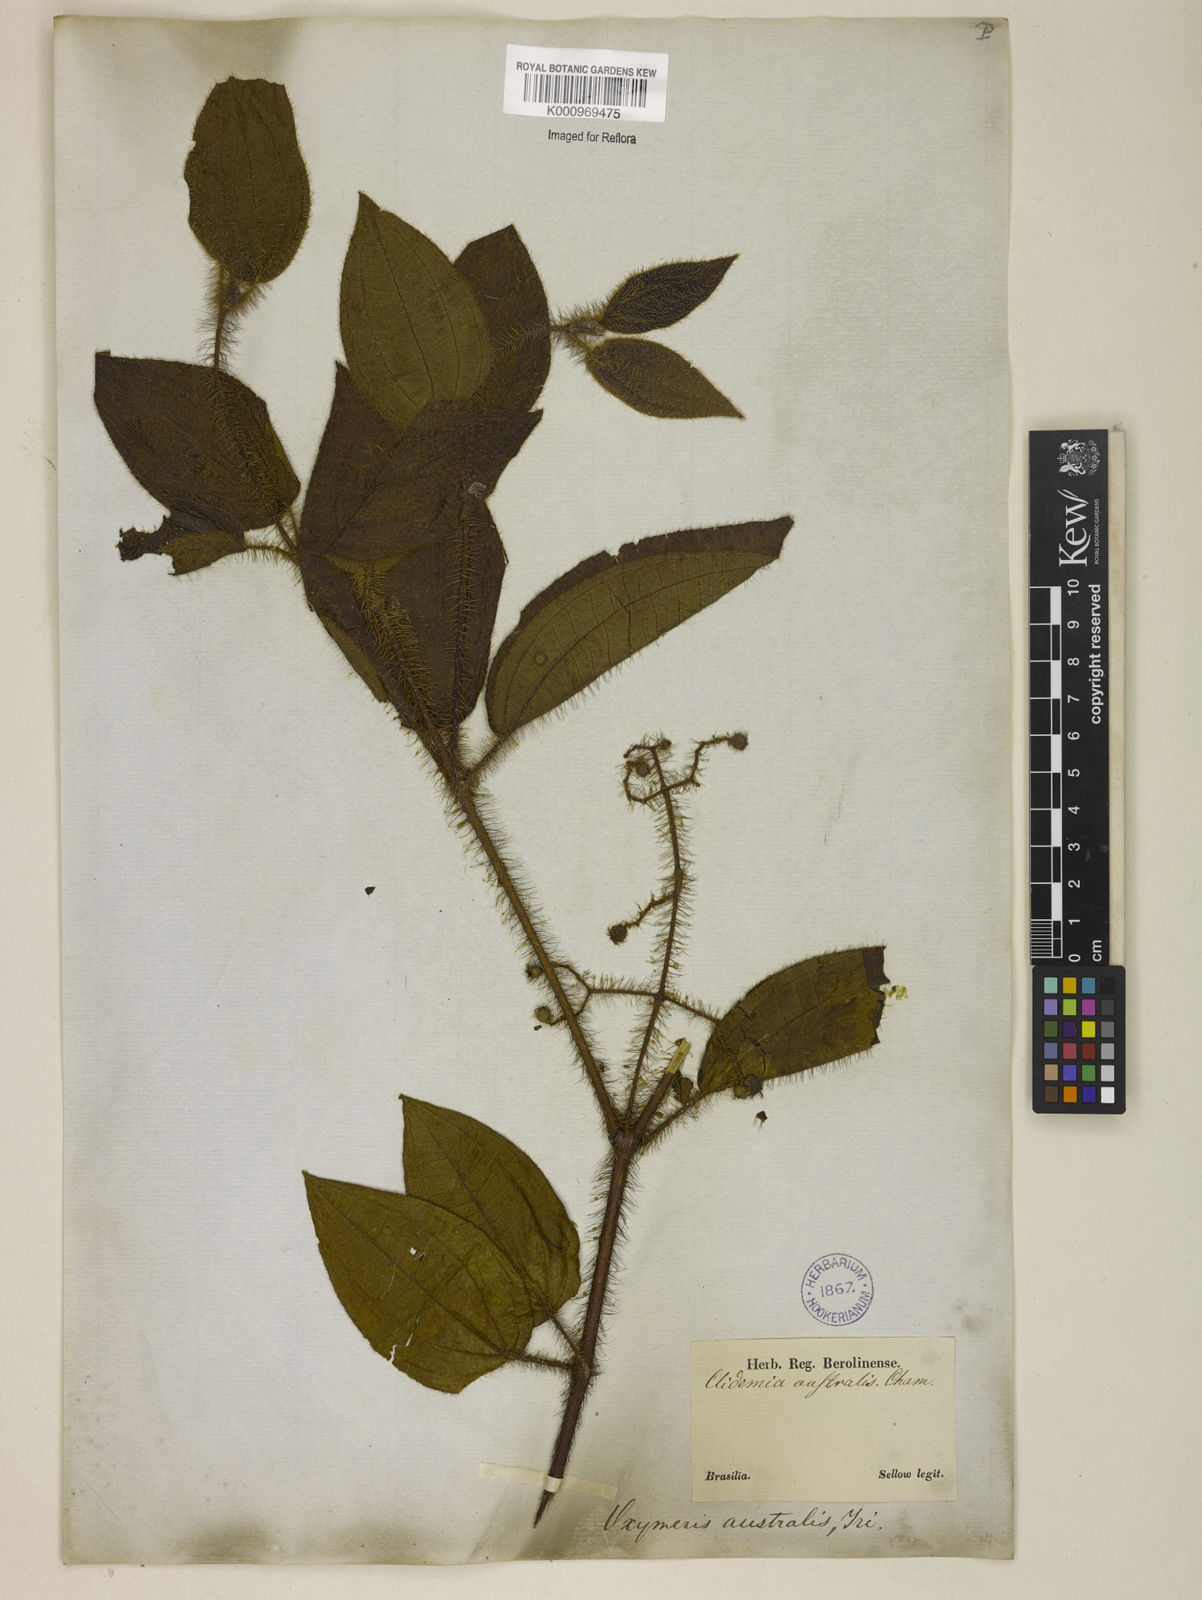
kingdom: Plantae
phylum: Tracheophyta
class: Magnoliopsida
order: Myrtales
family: Melastomataceae
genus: Miconia
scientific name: Miconia australis
